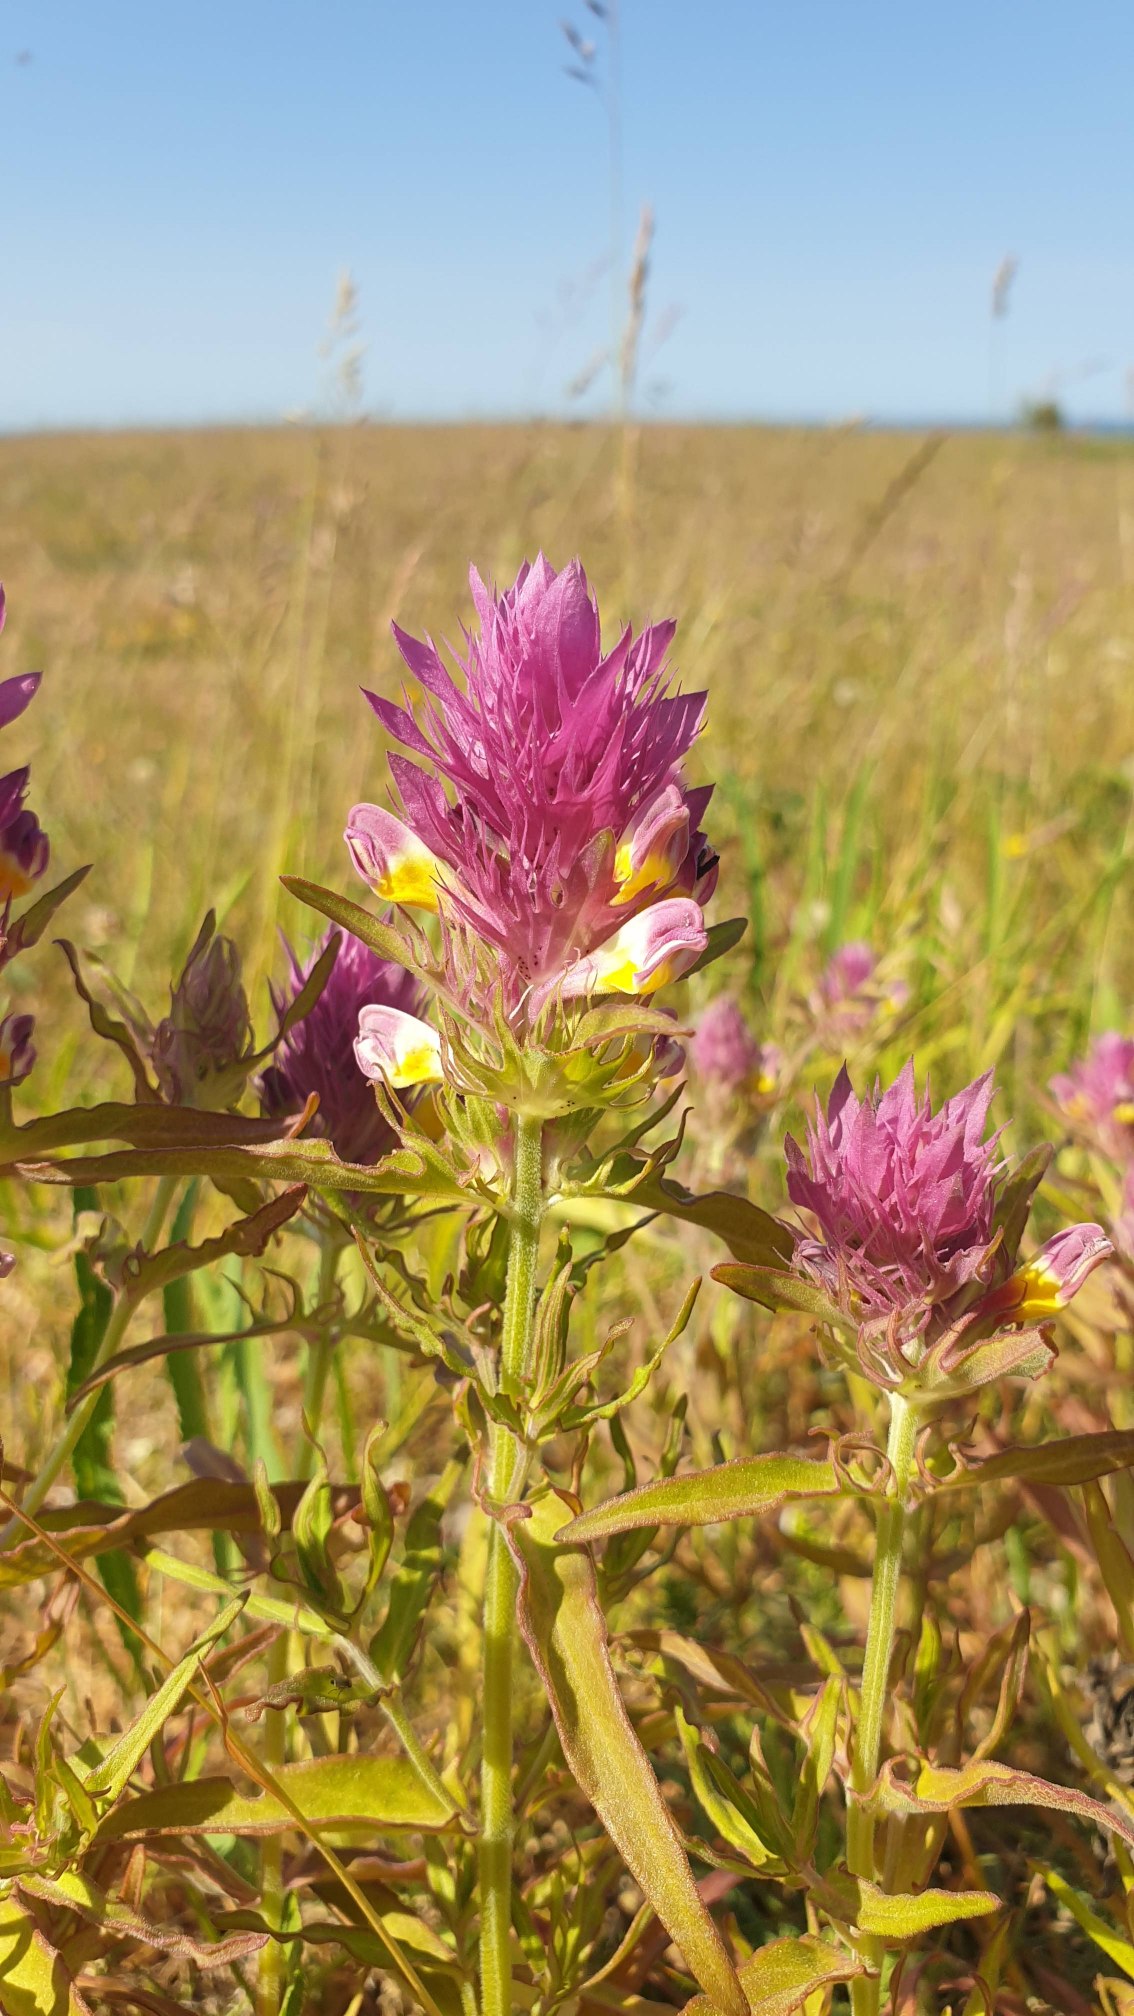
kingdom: Plantae
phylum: Tracheophyta
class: Magnoliopsida
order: Lamiales
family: Orobanchaceae
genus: Melampyrum
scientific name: Melampyrum arvense
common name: Ager-kohvede
